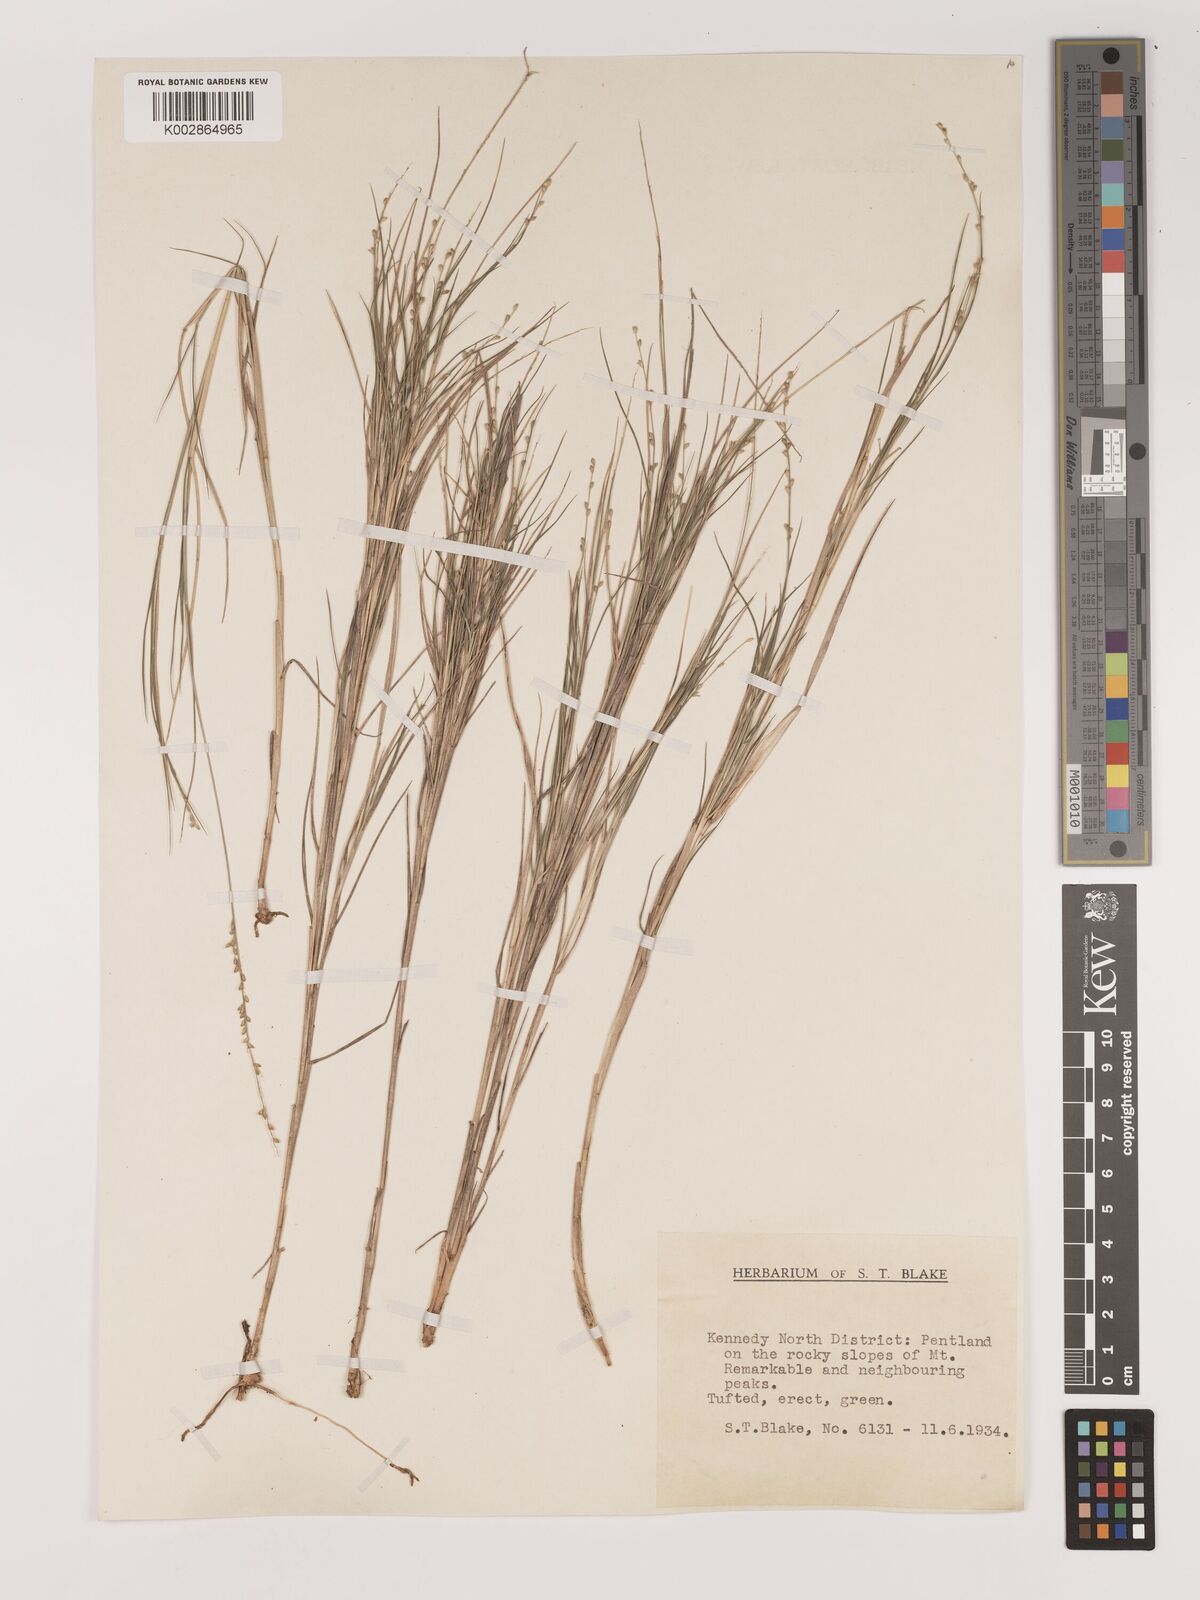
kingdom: Plantae
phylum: Tracheophyta
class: Liliopsida
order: Poales
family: Poaceae
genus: Setaria
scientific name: Setaria
